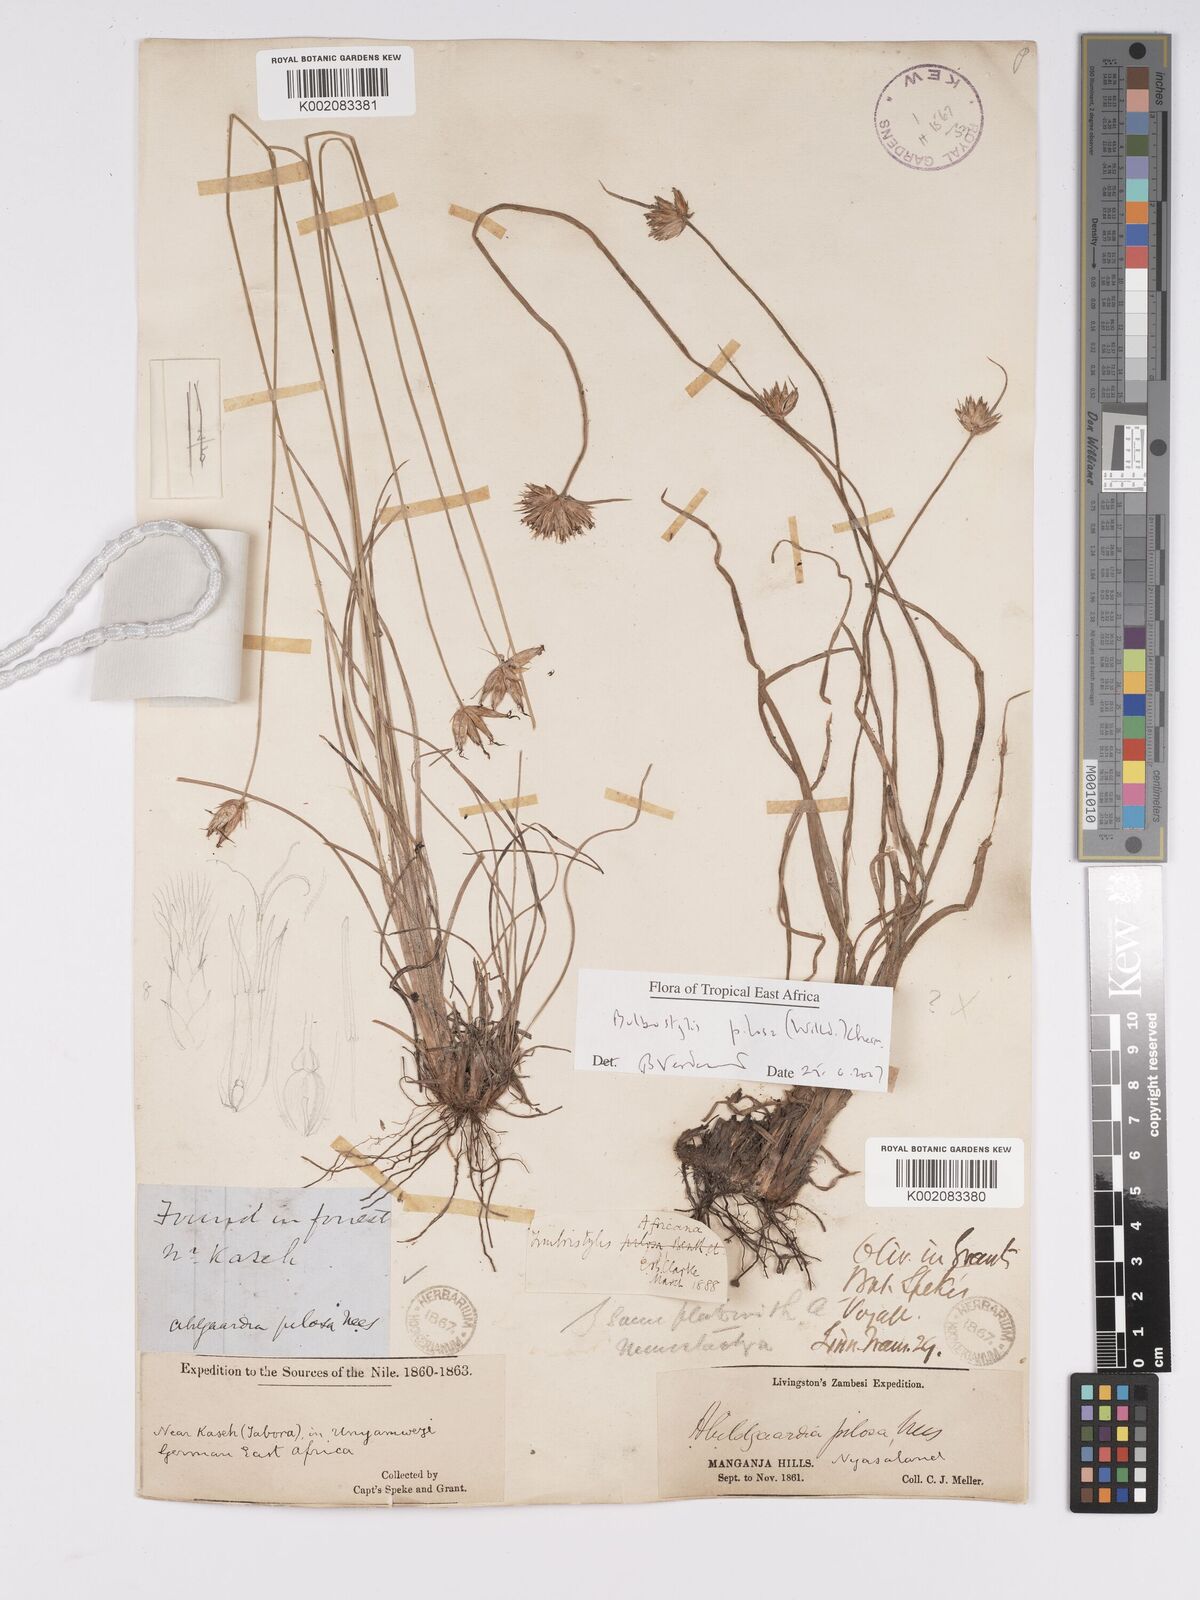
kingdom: Plantae
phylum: Tracheophyta
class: Liliopsida
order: Poales
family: Cyperaceae
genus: Bulbostylis
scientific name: Bulbostylis pilosa
